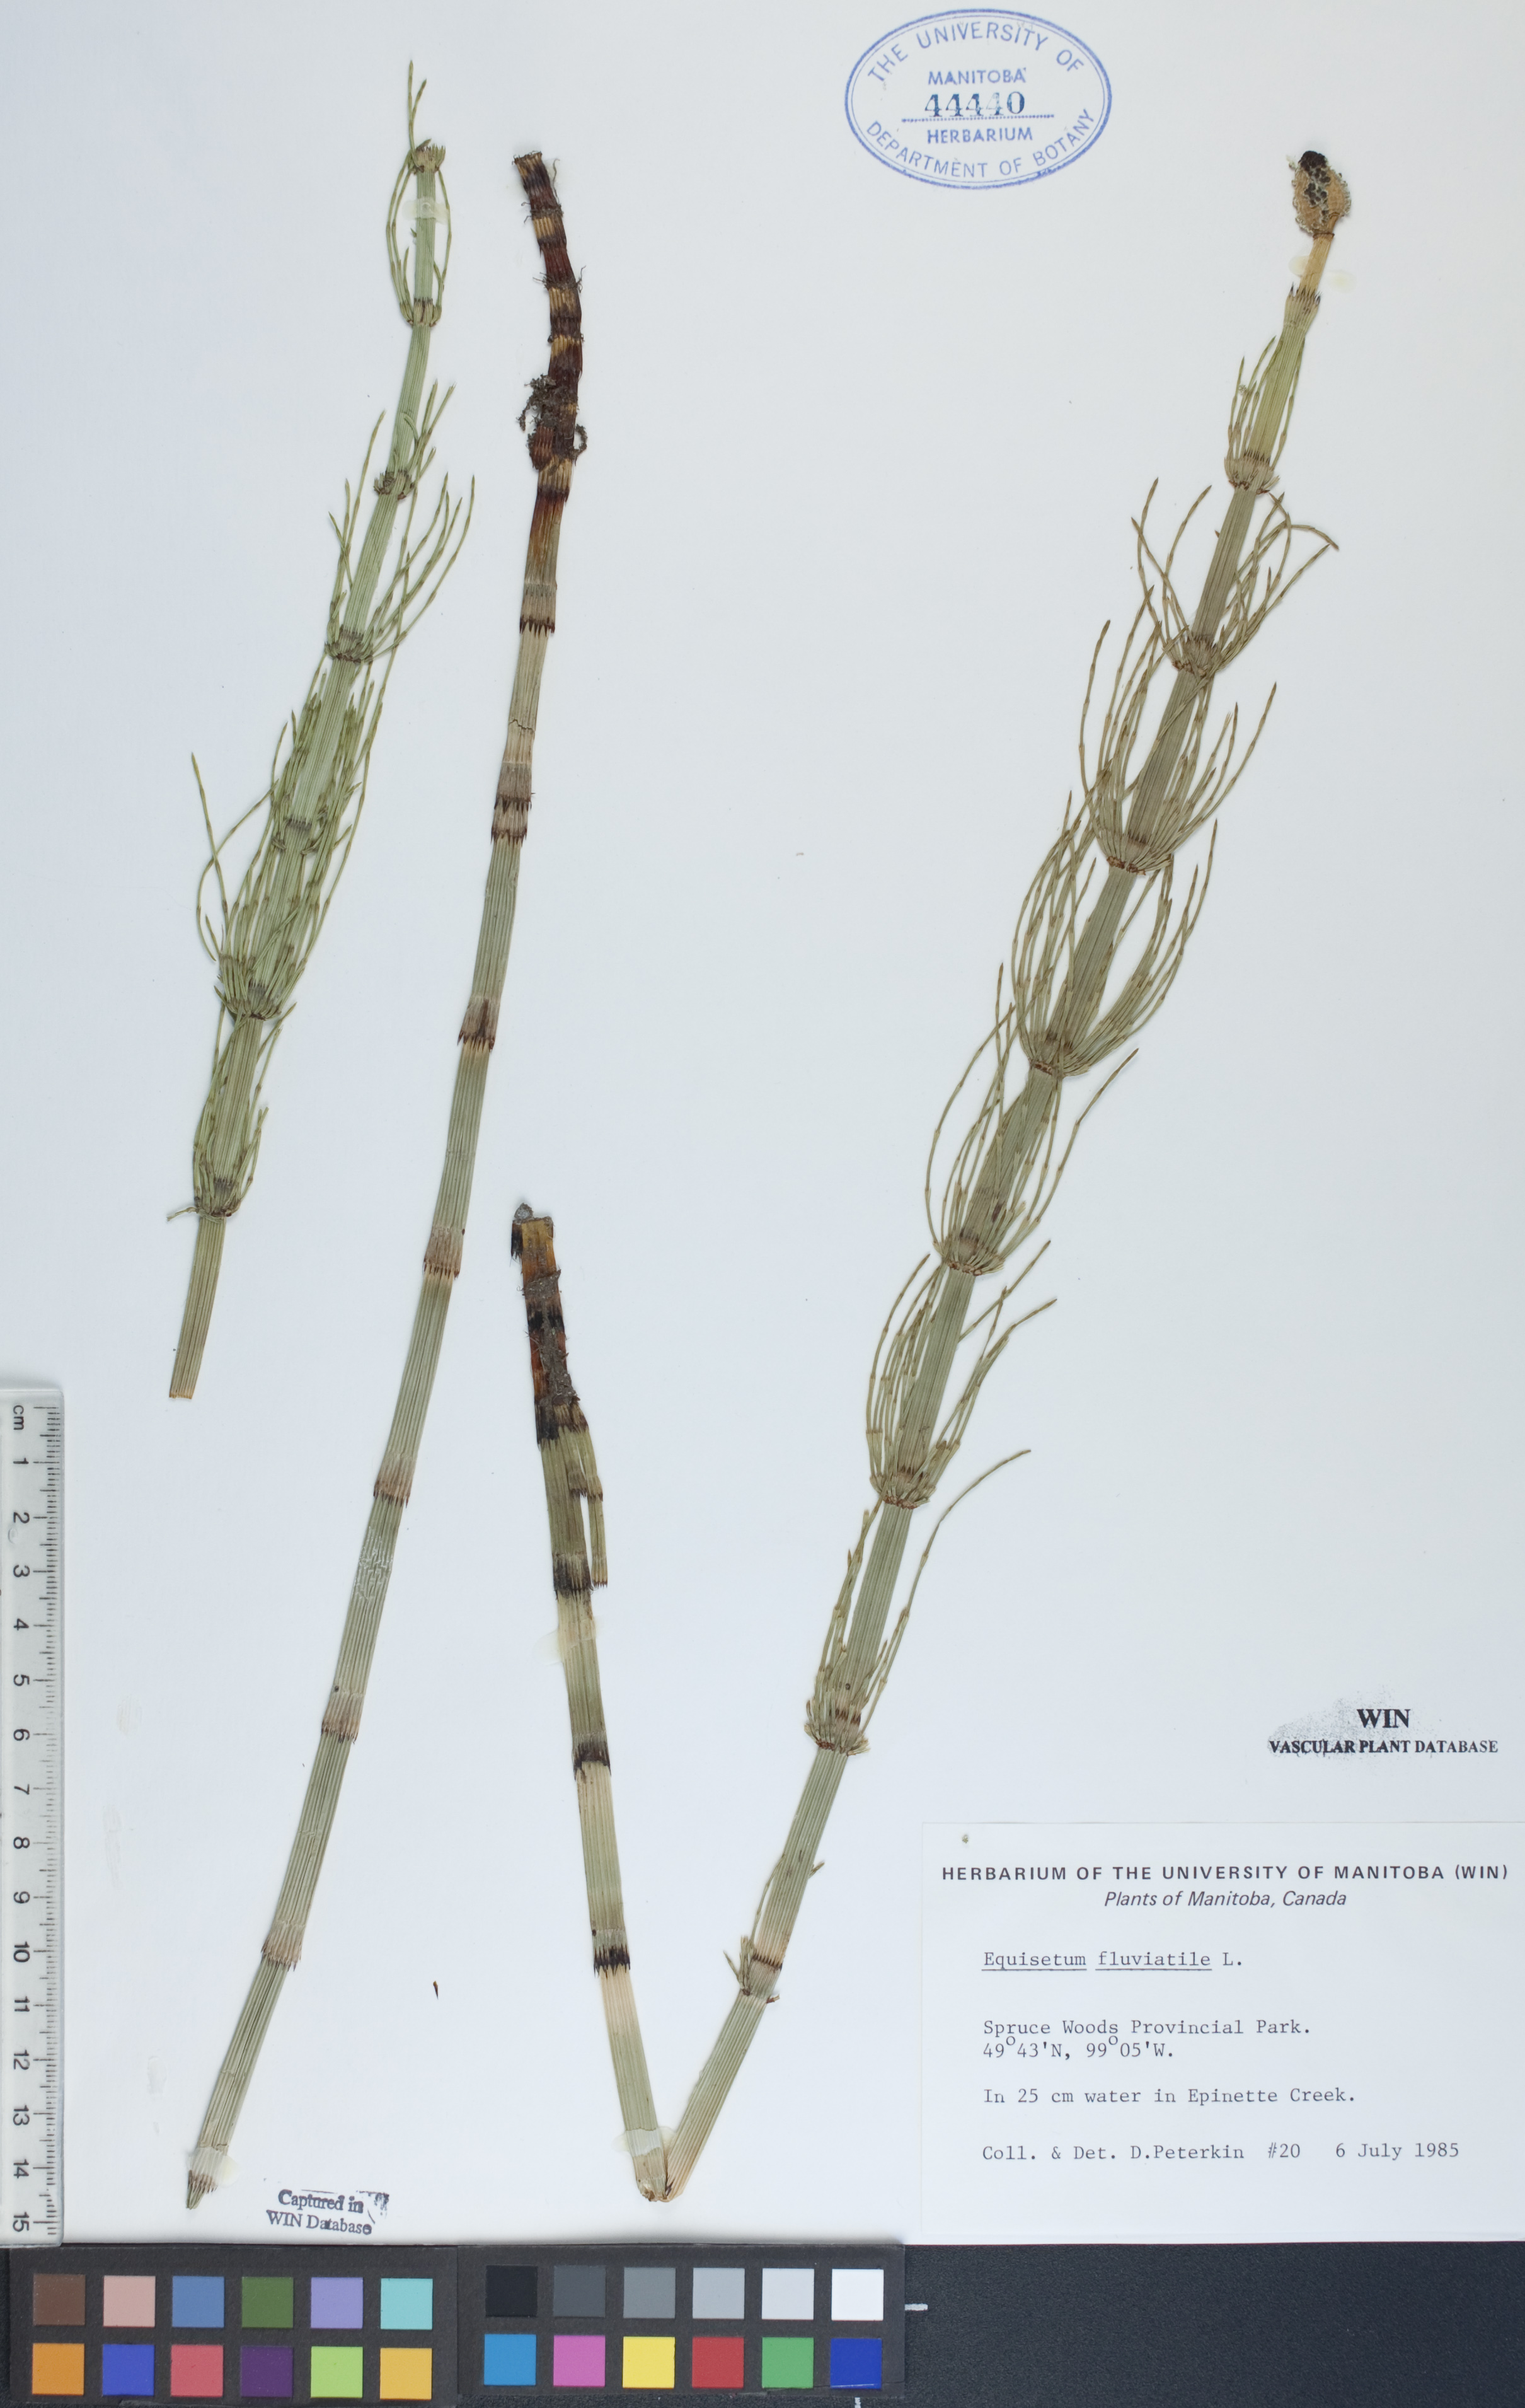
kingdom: Plantae
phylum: Tracheophyta
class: Polypodiopsida
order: Equisetales
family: Equisetaceae
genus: Equisetum
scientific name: Equisetum fluviatile
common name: Water horsetail
